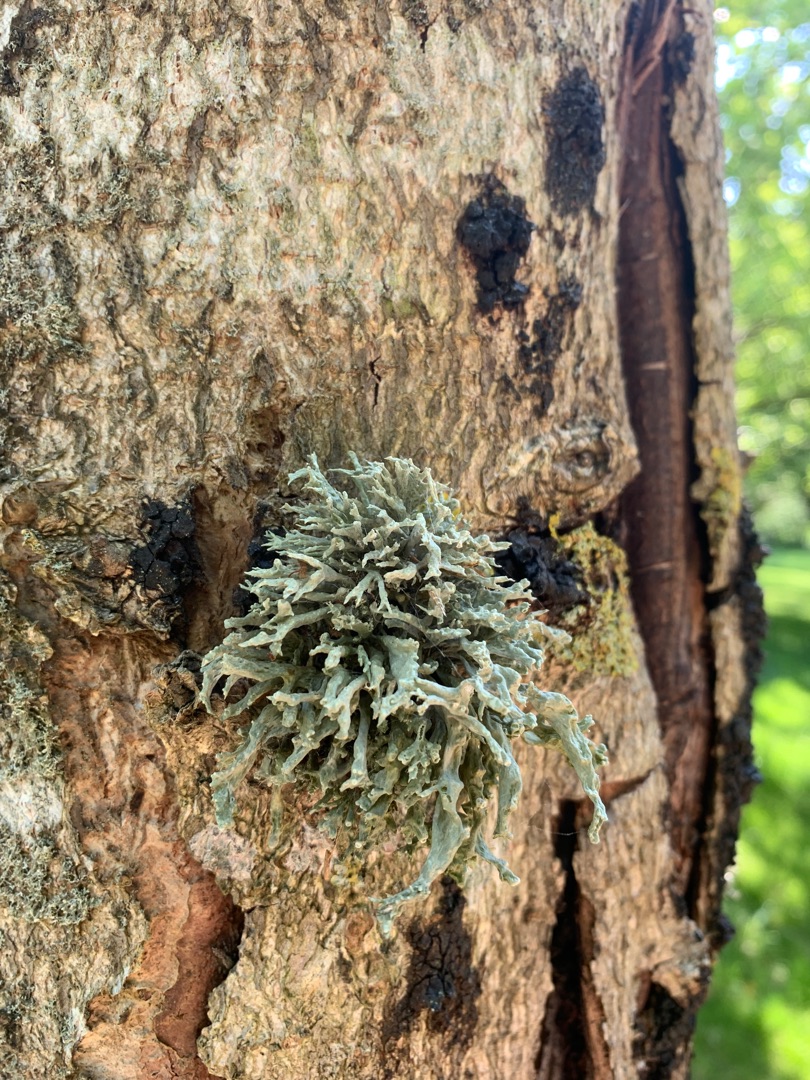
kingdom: Fungi
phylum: Ascomycota
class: Lecanoromycetes
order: Lecanorales
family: Ramalinaceae
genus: Ramalina
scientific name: Ramalina fastigiata
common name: Tue-grenlav
